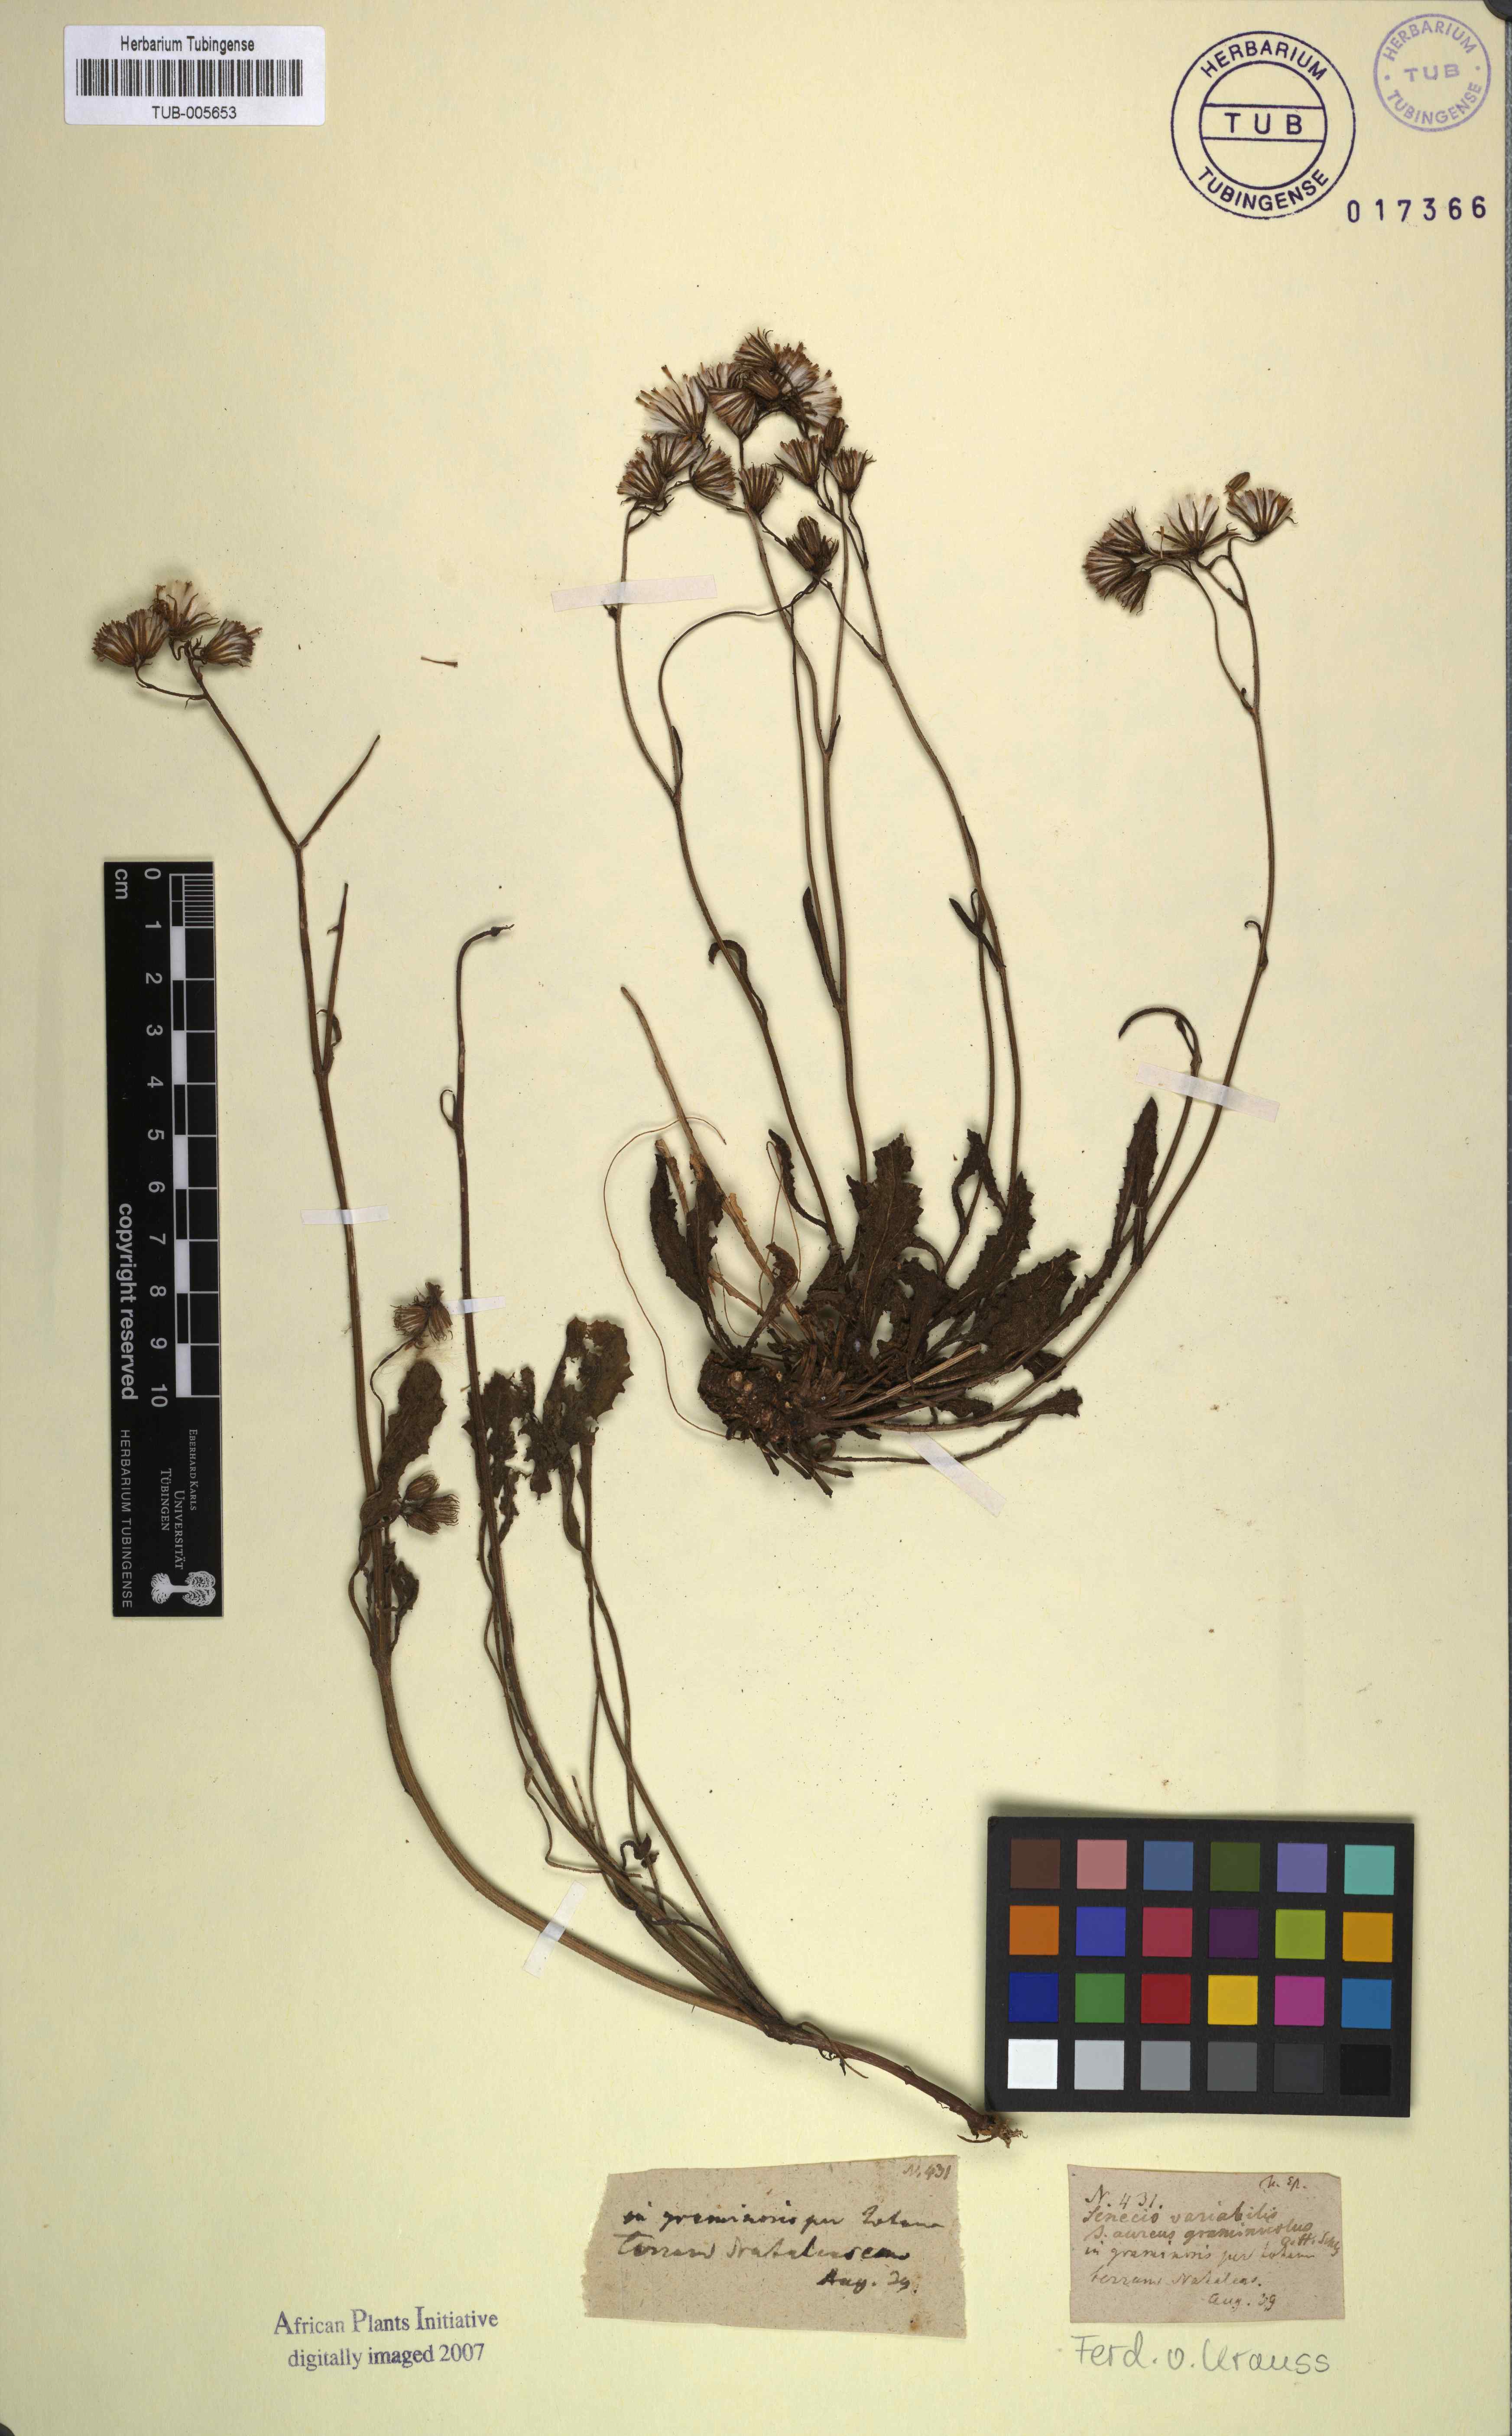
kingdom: Plantae
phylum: Tracheophyta
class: Magnoliopsida
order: Asterales
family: Asteraceae
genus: Senecio
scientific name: Senecio erubescens
